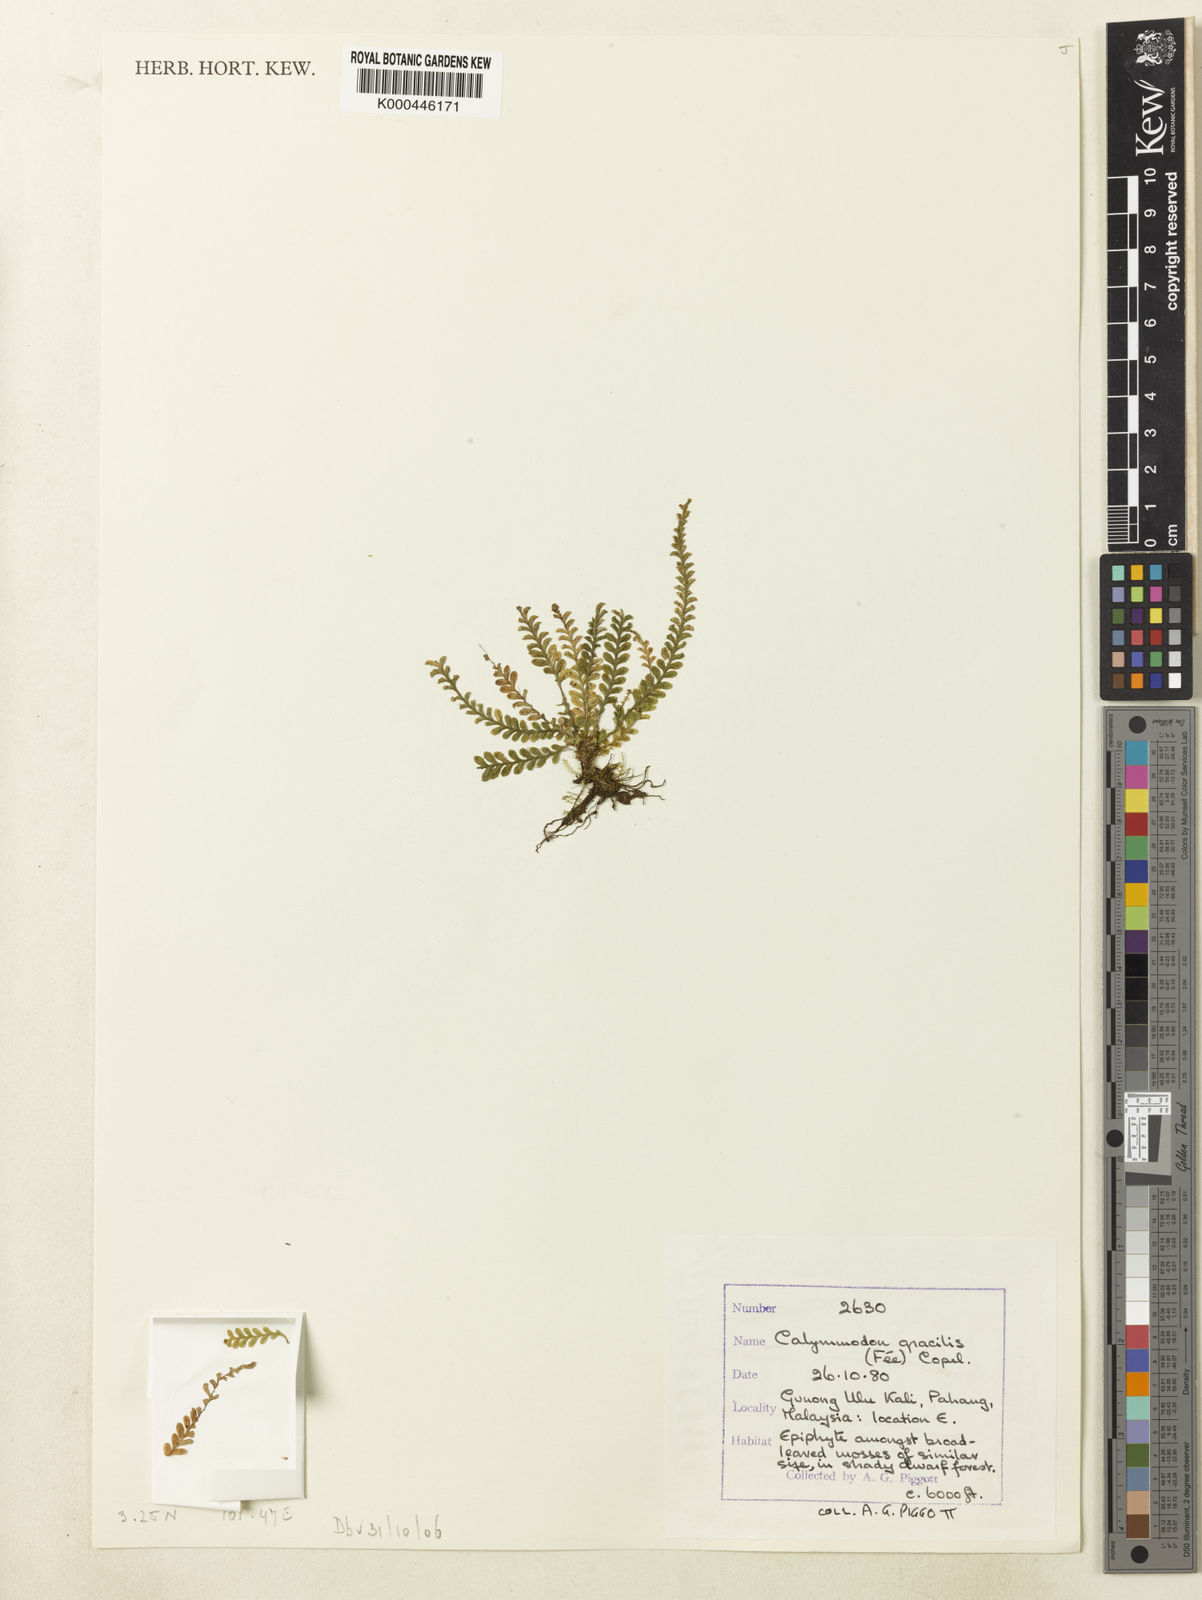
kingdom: Plantae
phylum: Tracheophyta
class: Polypodiopsida
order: Polypodiales
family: Polypodiaceae
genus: Calymmodon
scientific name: Calymmodon gracilis
